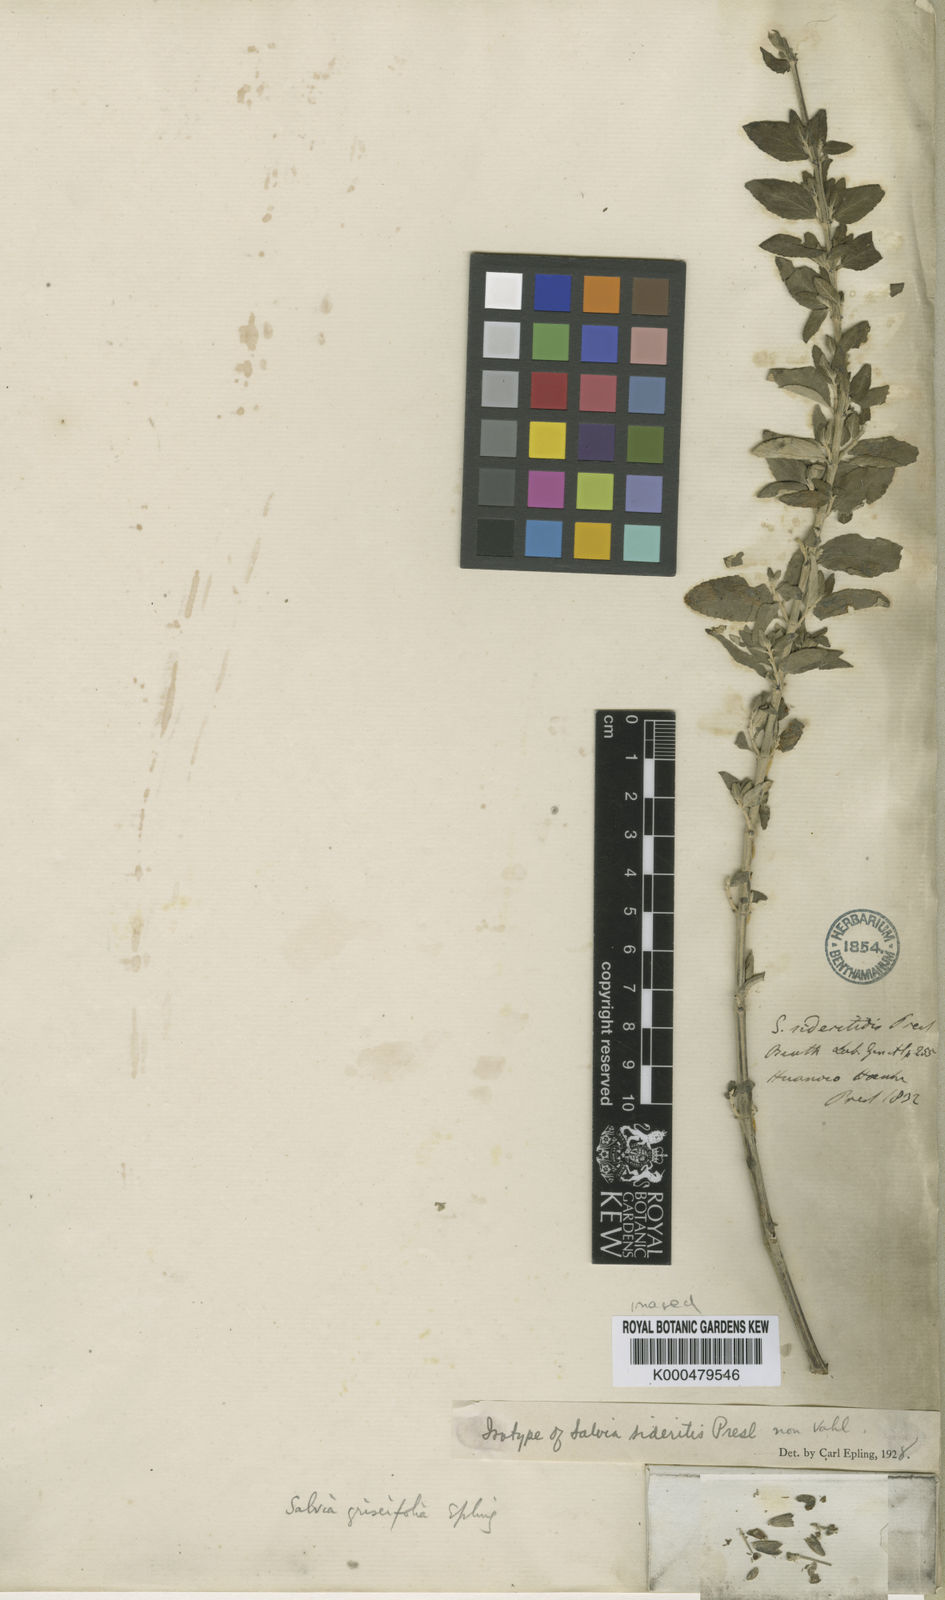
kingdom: Plantae
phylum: Tracheophyta
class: Magnoliopsida
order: Lamiales
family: Lamiaceae
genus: Salvia
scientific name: Salvia griseifolia
